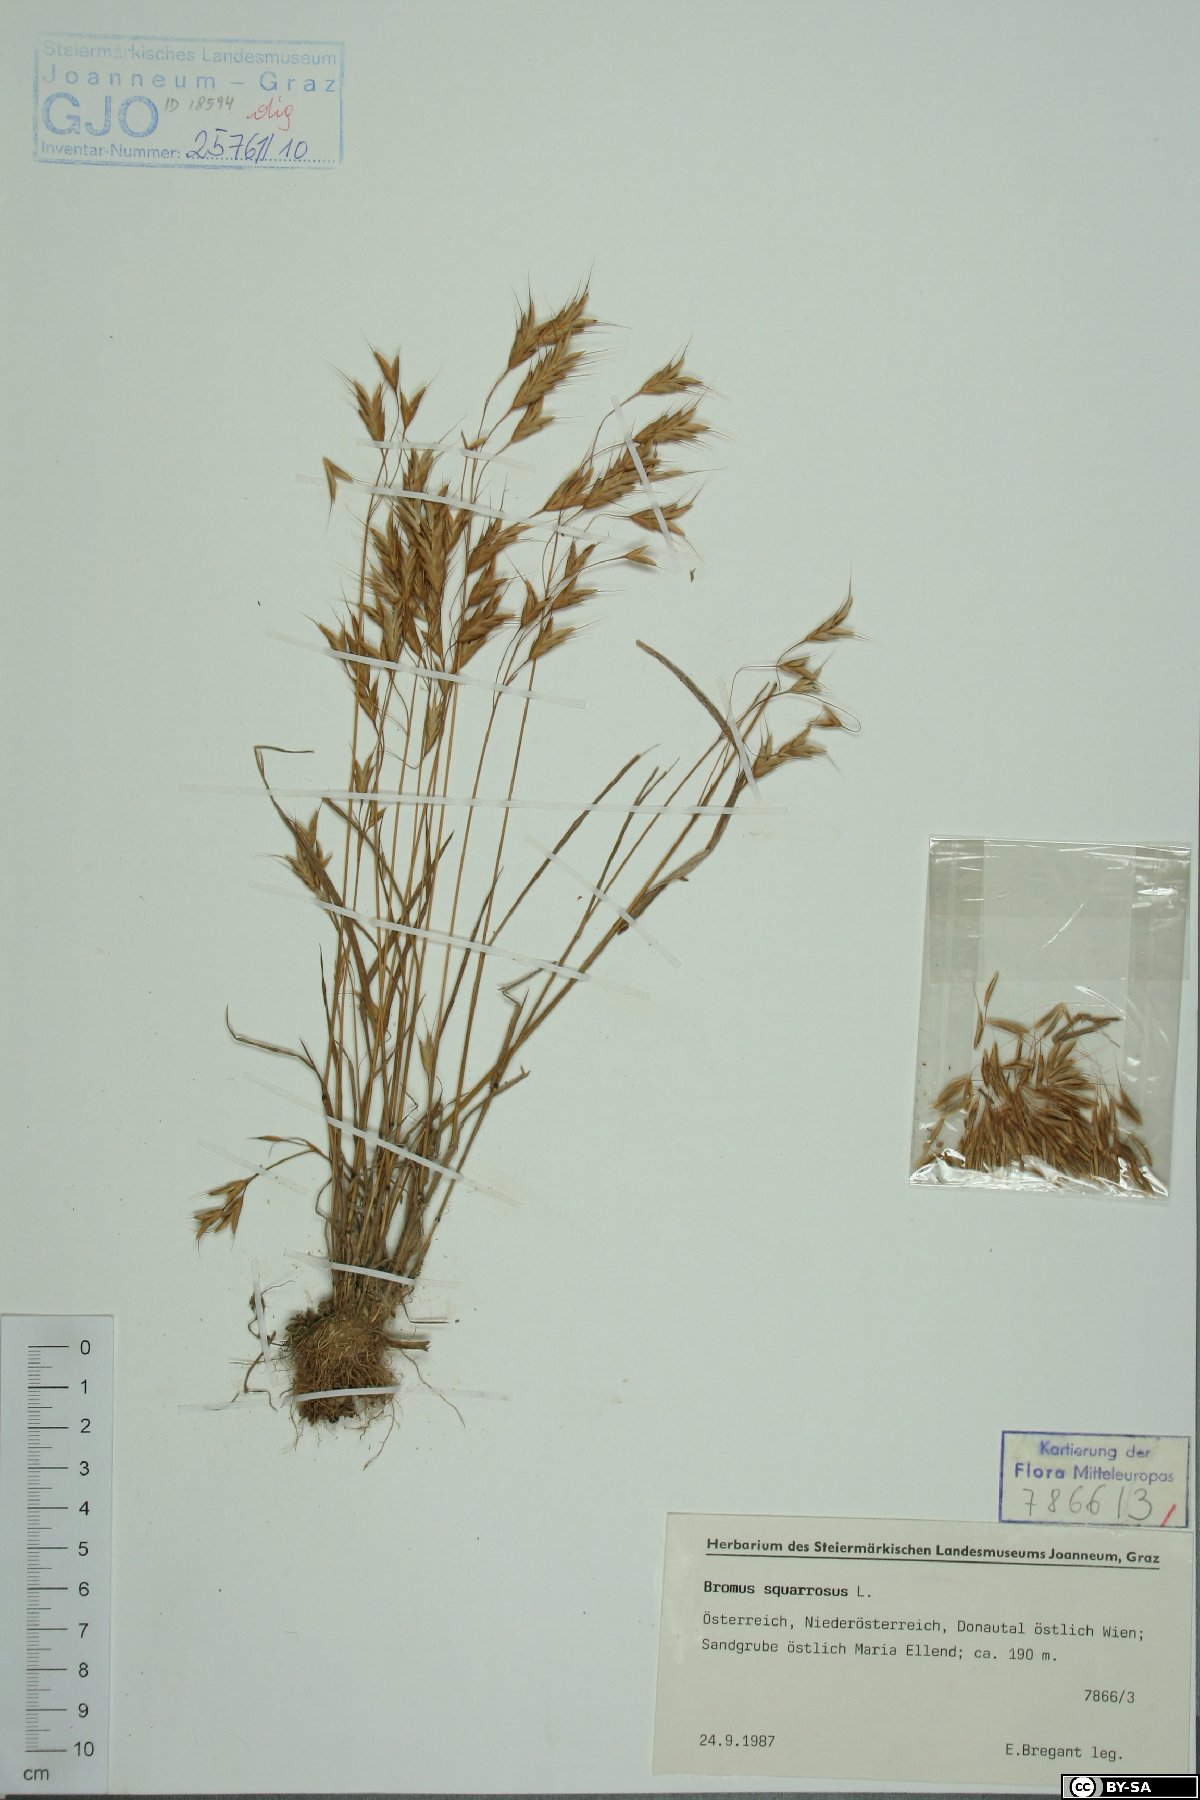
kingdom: Plantae
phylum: Tracheophyta
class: Liliopsida
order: Poales
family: Poaceae
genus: Bromus
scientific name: Bromus squarrosus
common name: Corn brome
